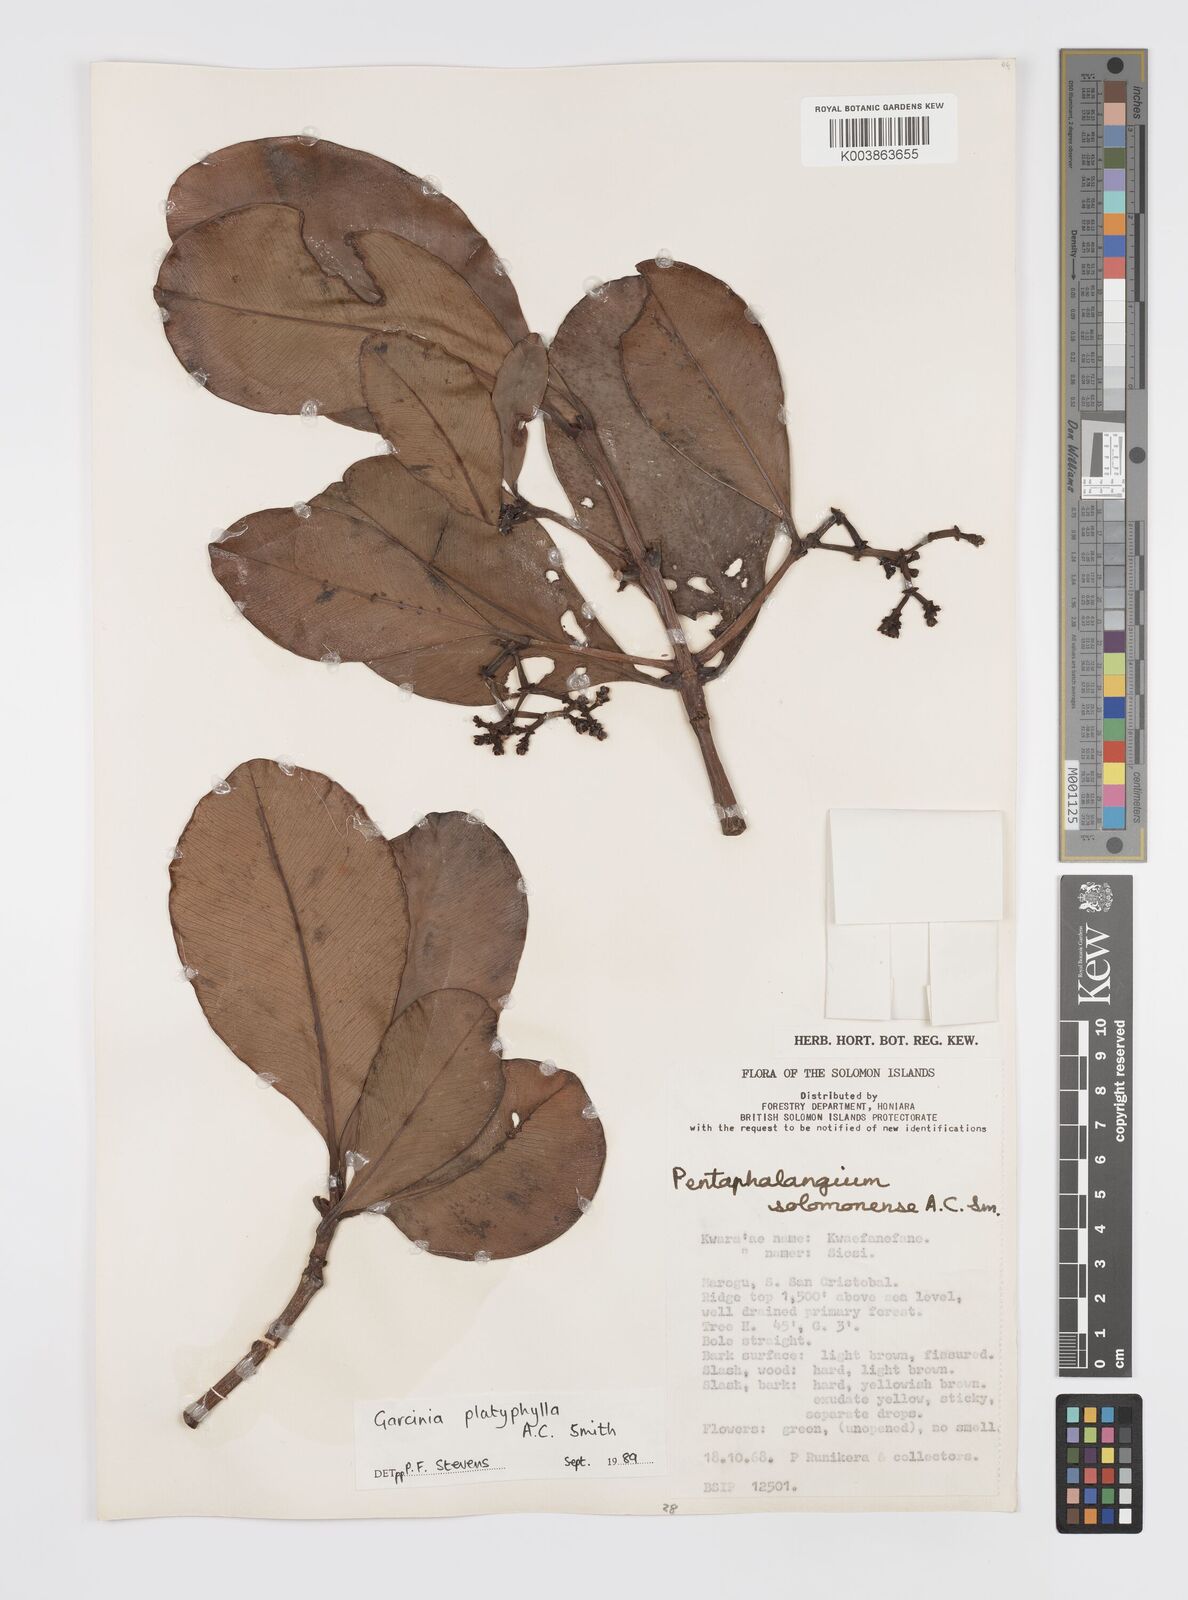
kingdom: Plantae
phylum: Tracheophyta
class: Magnoliopsida
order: Malpighiales
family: Clusiaceae
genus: Garcinia
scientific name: Garcinia platyphylla
